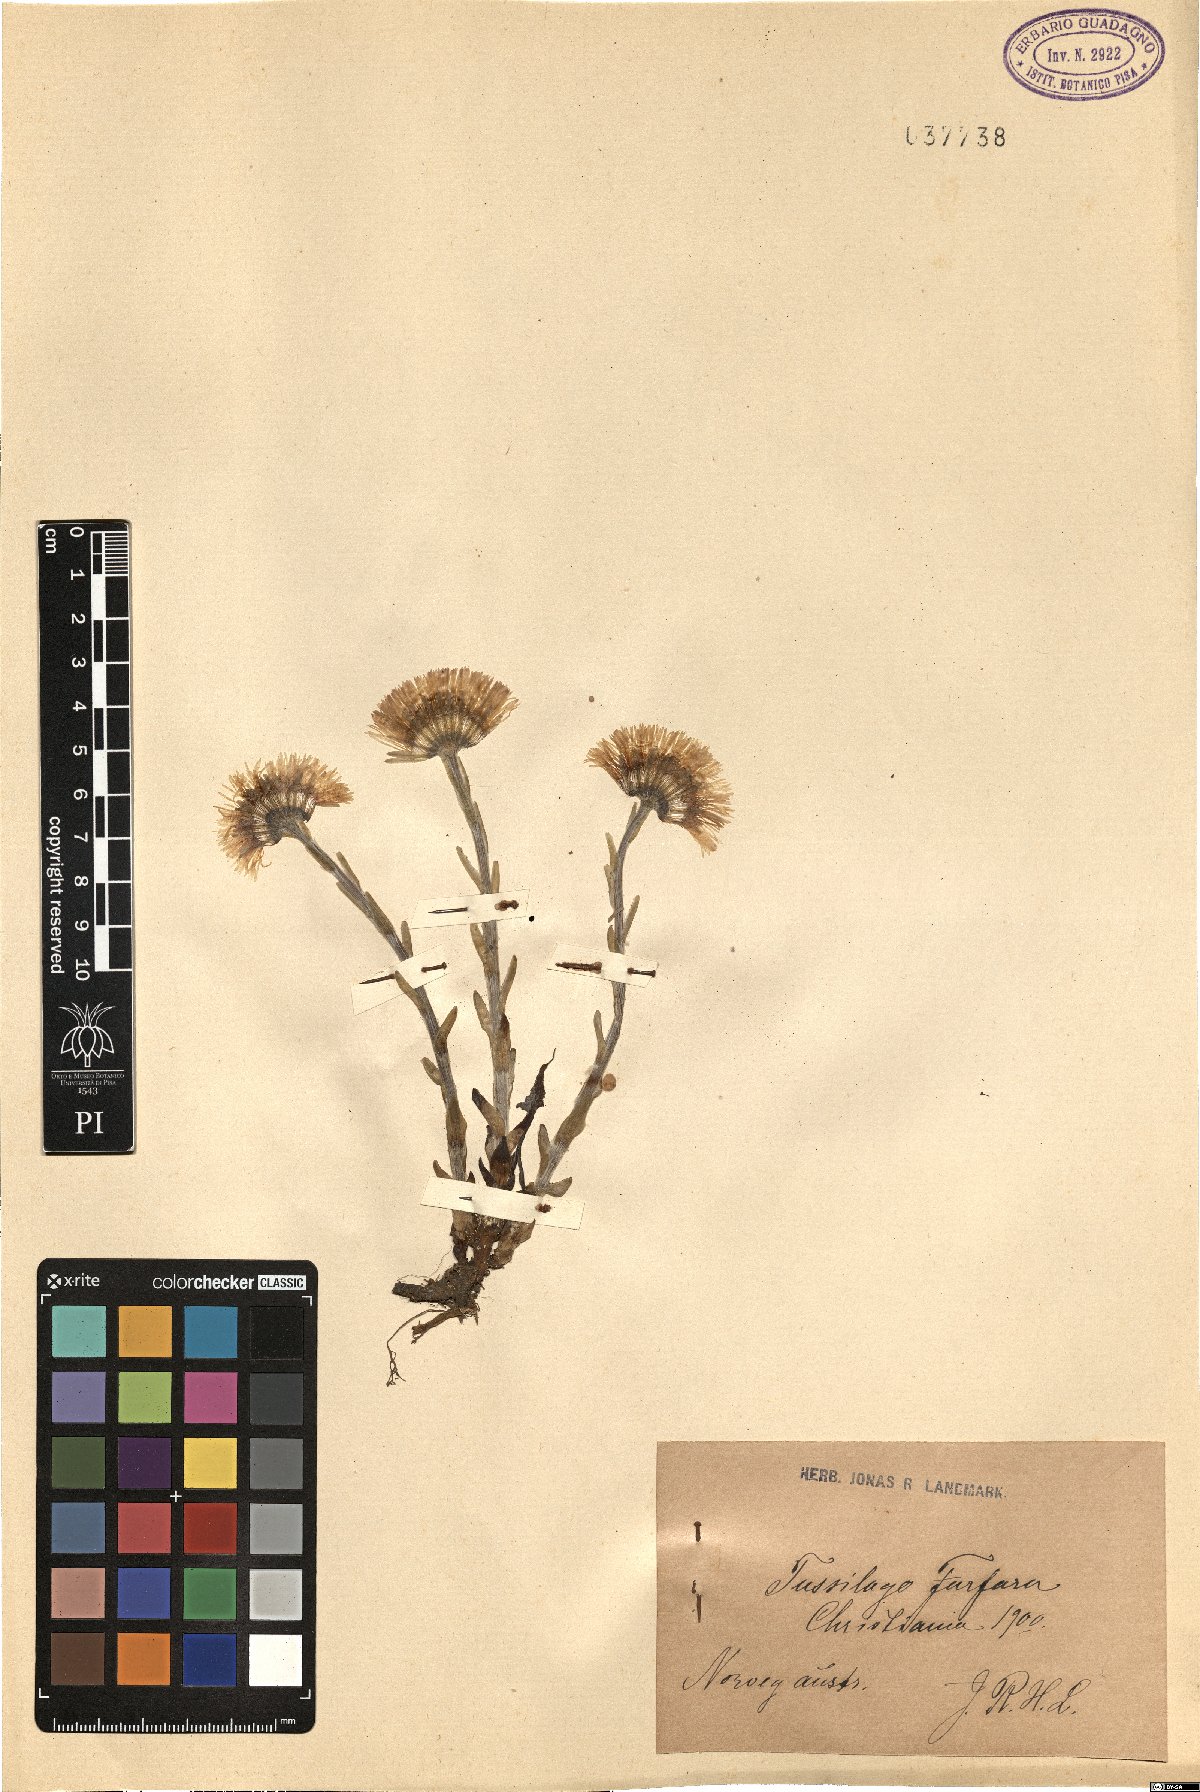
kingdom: Plantae
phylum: Tracheophyta
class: Magnoliopsida
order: Asterales
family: Asteraceae
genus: Tussilago
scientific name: Tussilago farfara
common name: Coltsfoot
